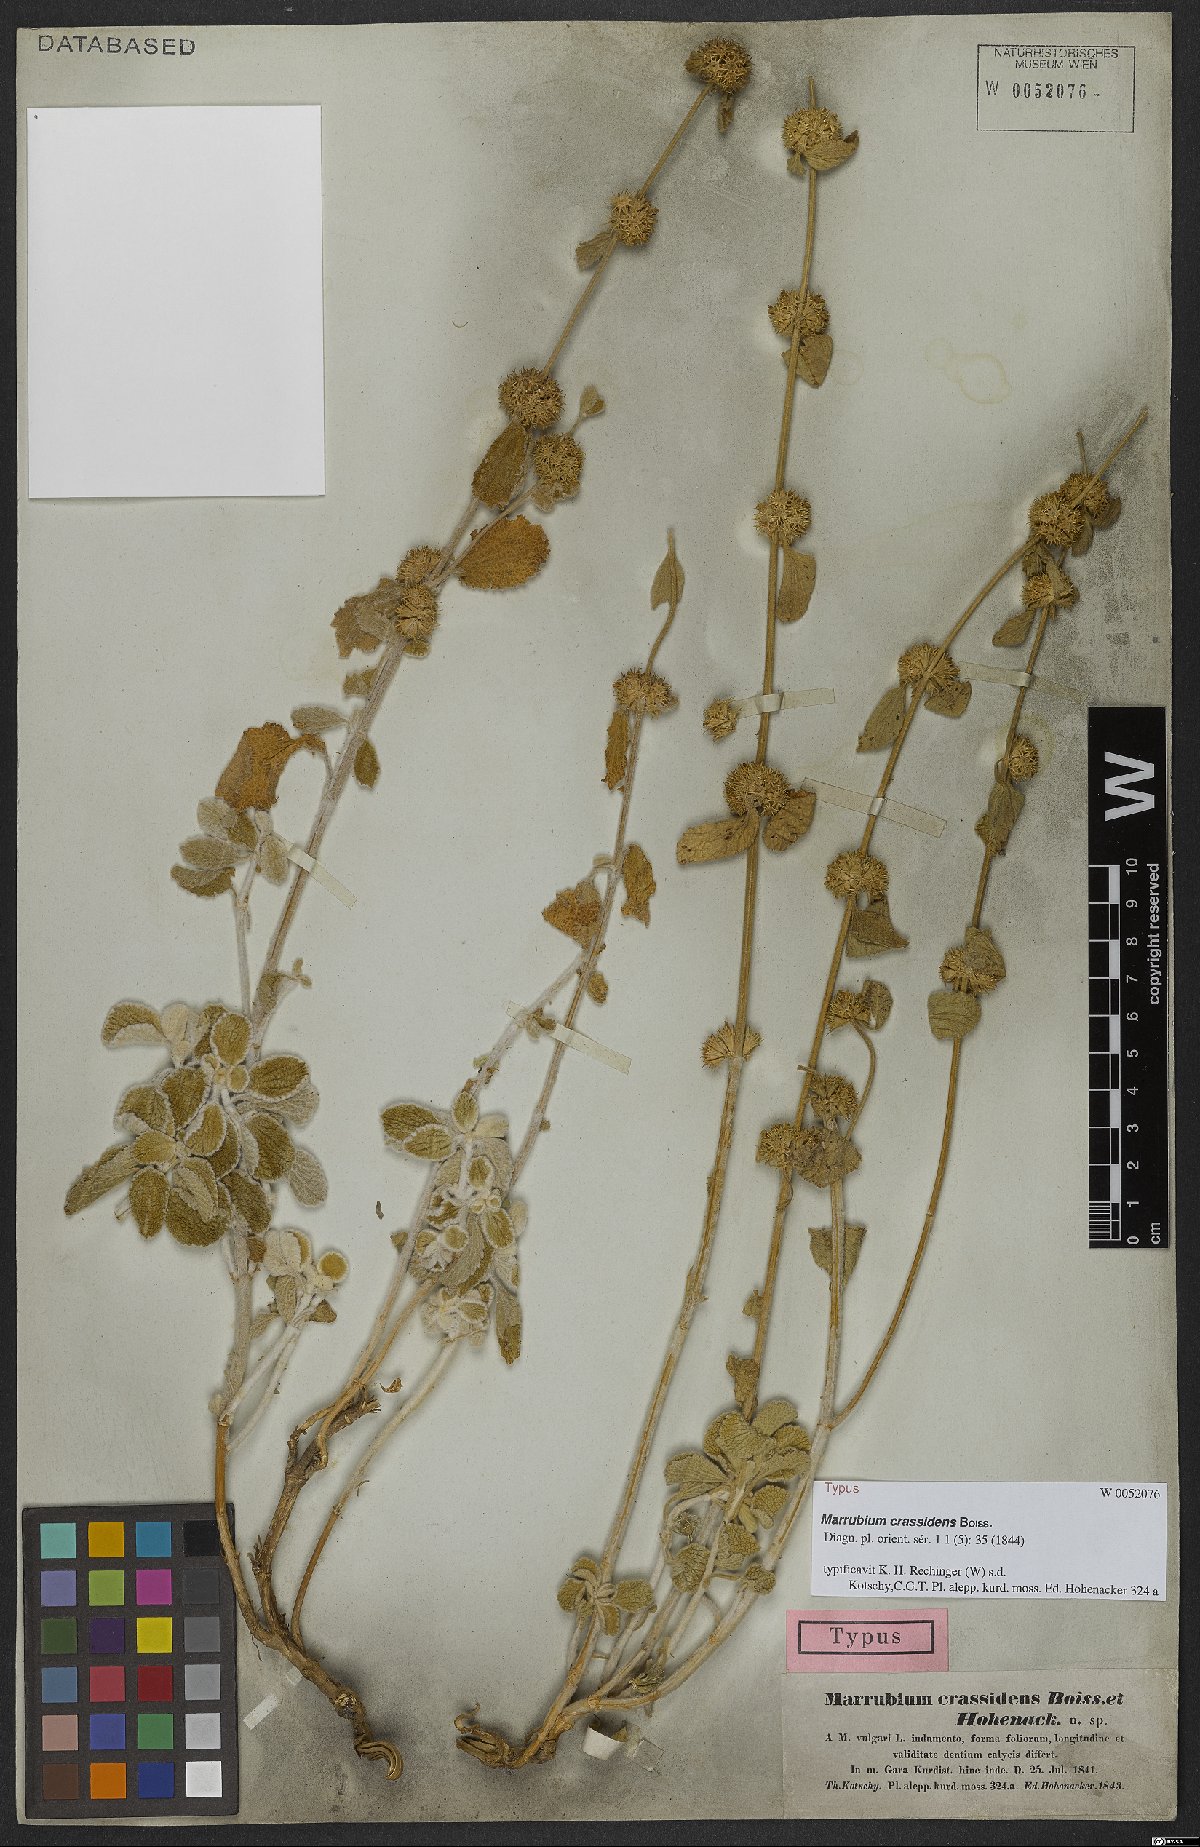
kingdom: Plantae
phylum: Tracheophyta
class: Magnoliopsida
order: Lamiales
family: Lamiaceae
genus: Marrubium
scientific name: Marrubium crassidens
